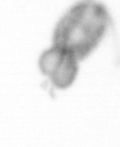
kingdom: Animalia
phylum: Arthropoda
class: Copepoda
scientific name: Copepoda
